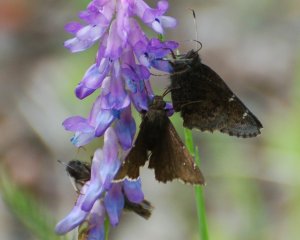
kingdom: Animalia
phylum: Arthropoda
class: Insecta
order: Lepidoptera
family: Hesperiidae
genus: Autochton
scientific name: Autochton
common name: Northern Cloudywing
